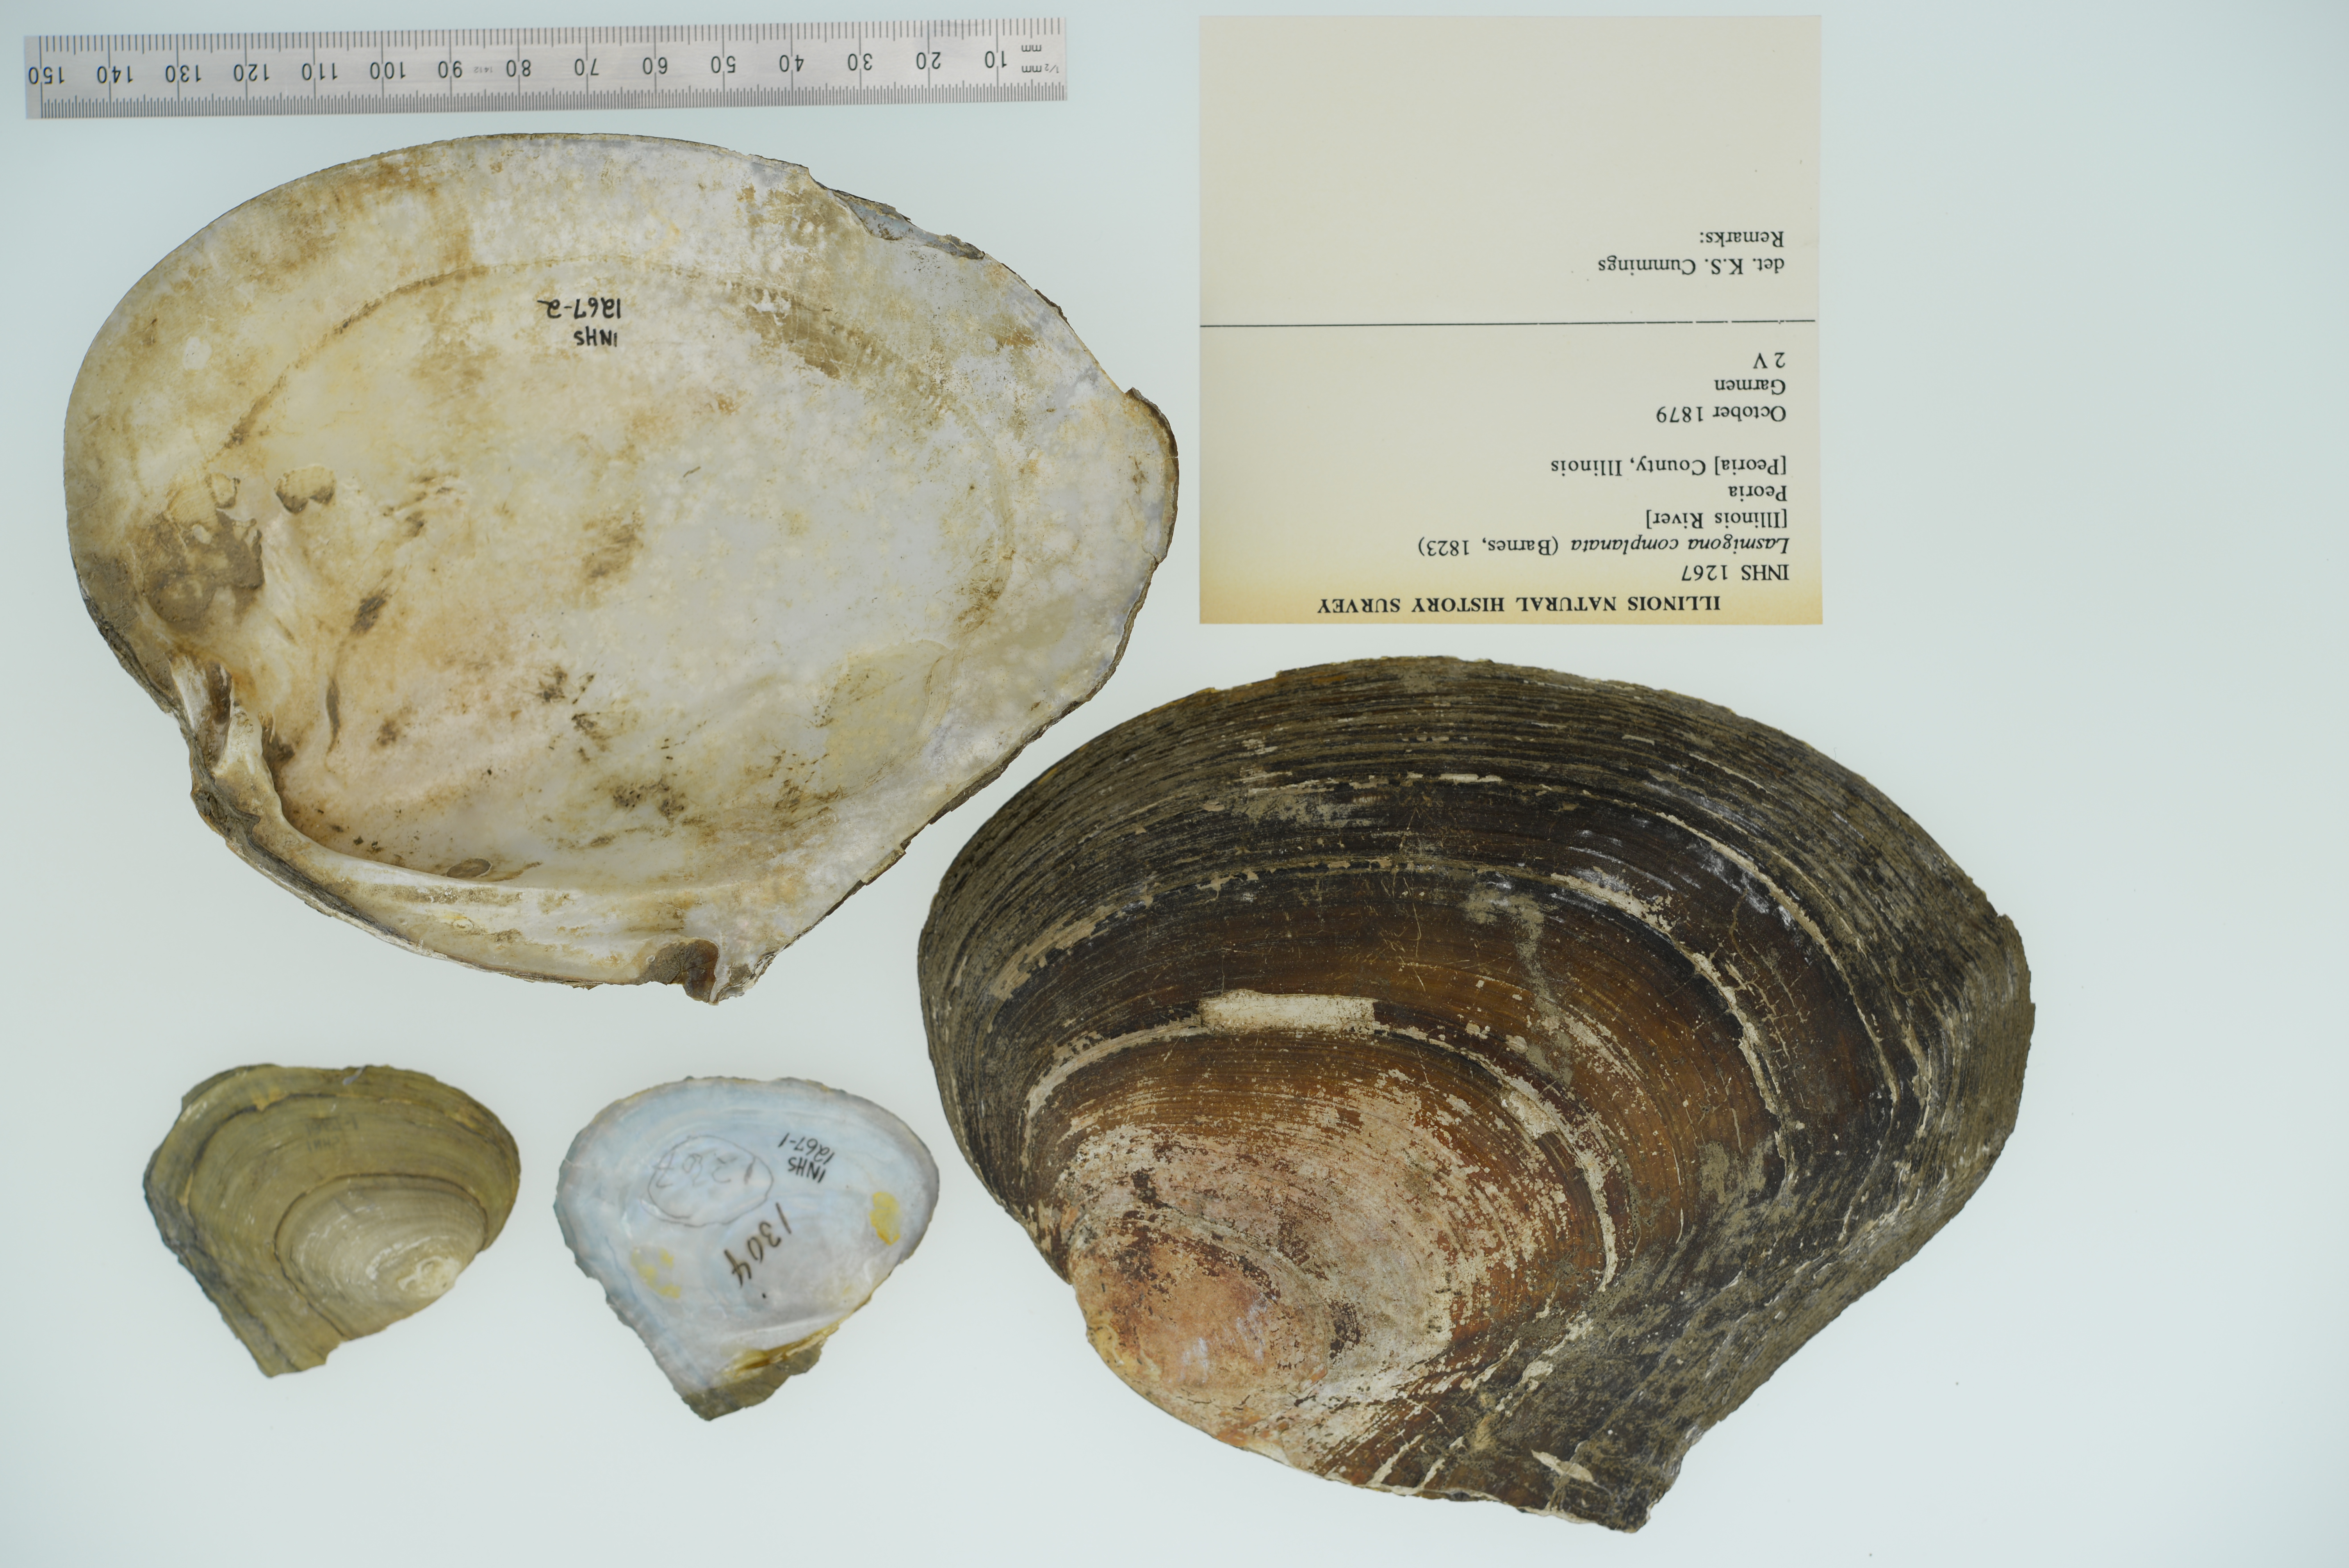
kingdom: Animalia
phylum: Mollusca
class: Bivalvia
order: Unionida
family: Unionidae
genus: Lasmigona
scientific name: Lasmigona complanata
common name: White heelsplitter
